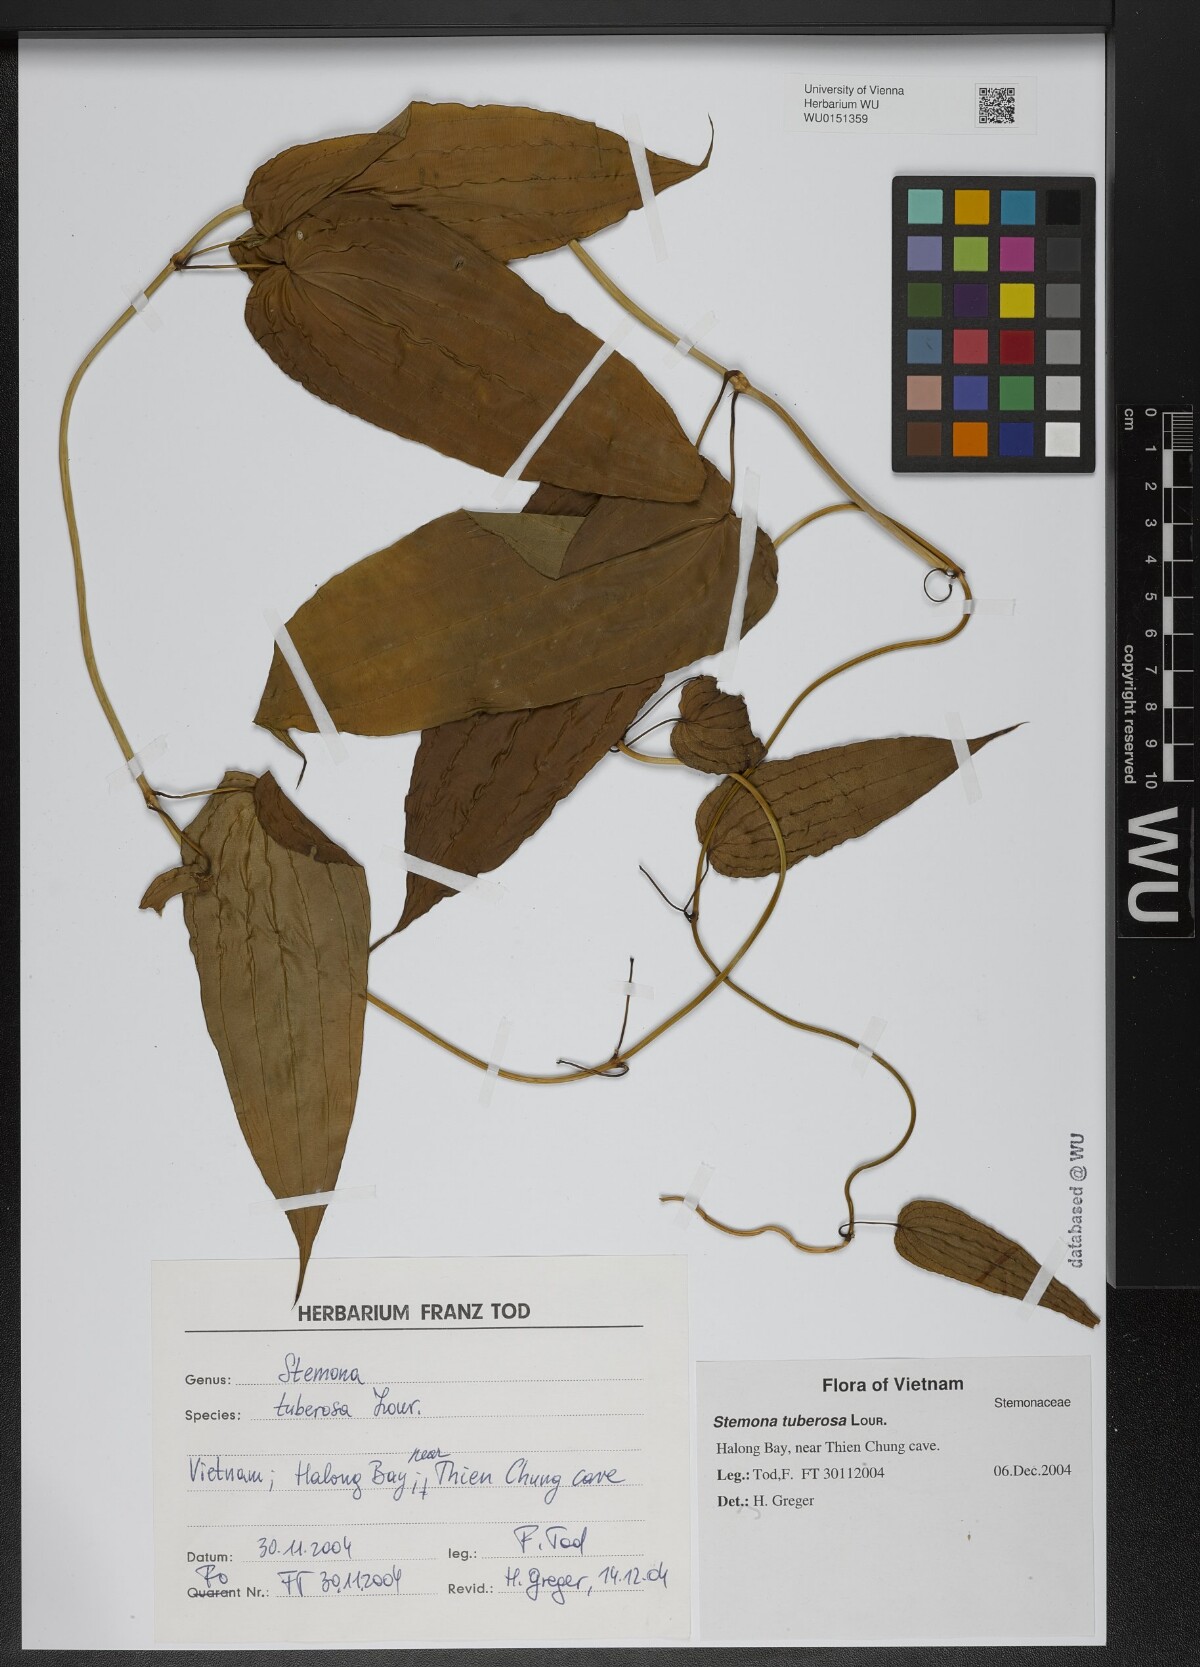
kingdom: Plantae
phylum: Tracheophyta
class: Liliopsida
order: Pandanales
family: Stemonaceae
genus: Stemona
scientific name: Stemona tuberosa
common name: Stemona
